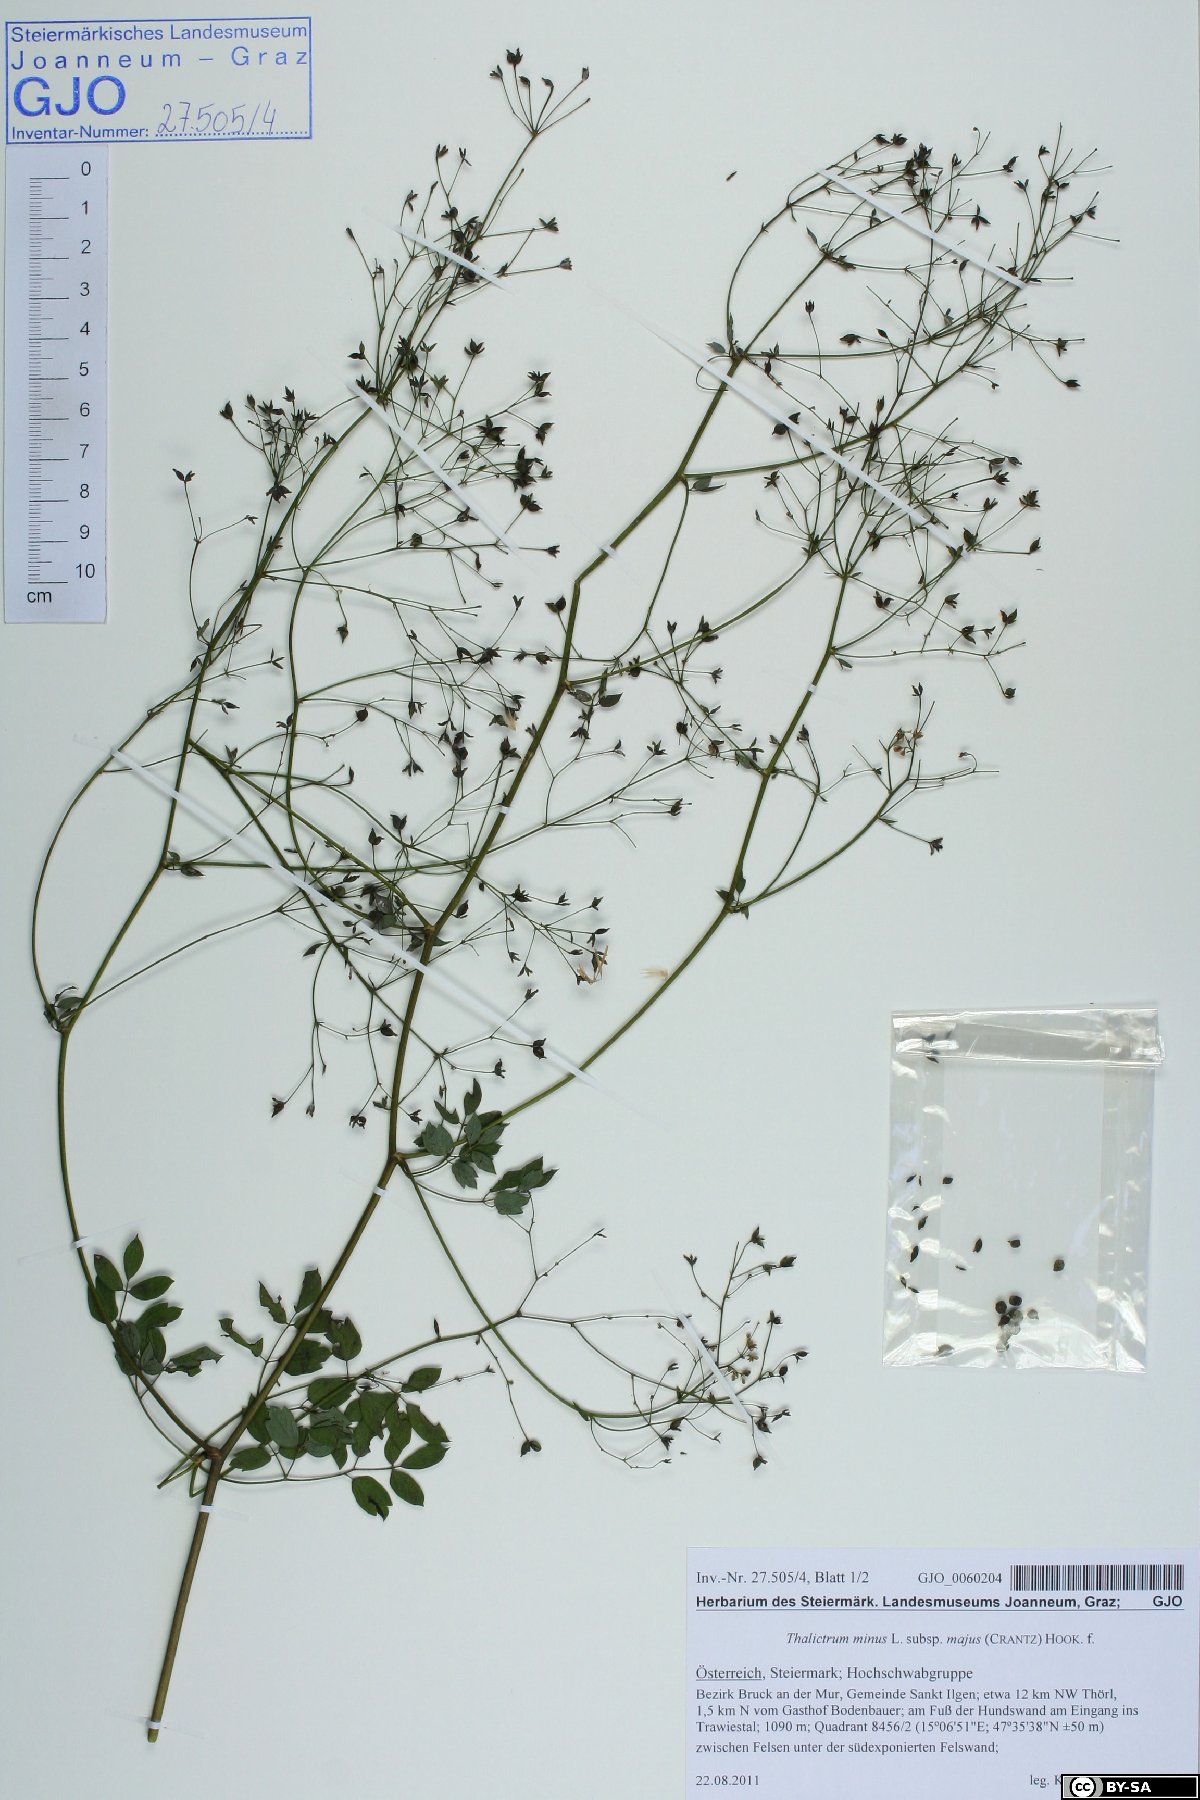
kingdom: Plantae
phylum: Tracheophyta
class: Magnoliopsida
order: Ranunculales
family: Ranunculaceae
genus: Thalictrum
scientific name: Thalictrum minus
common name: Lesser meadow-rue
